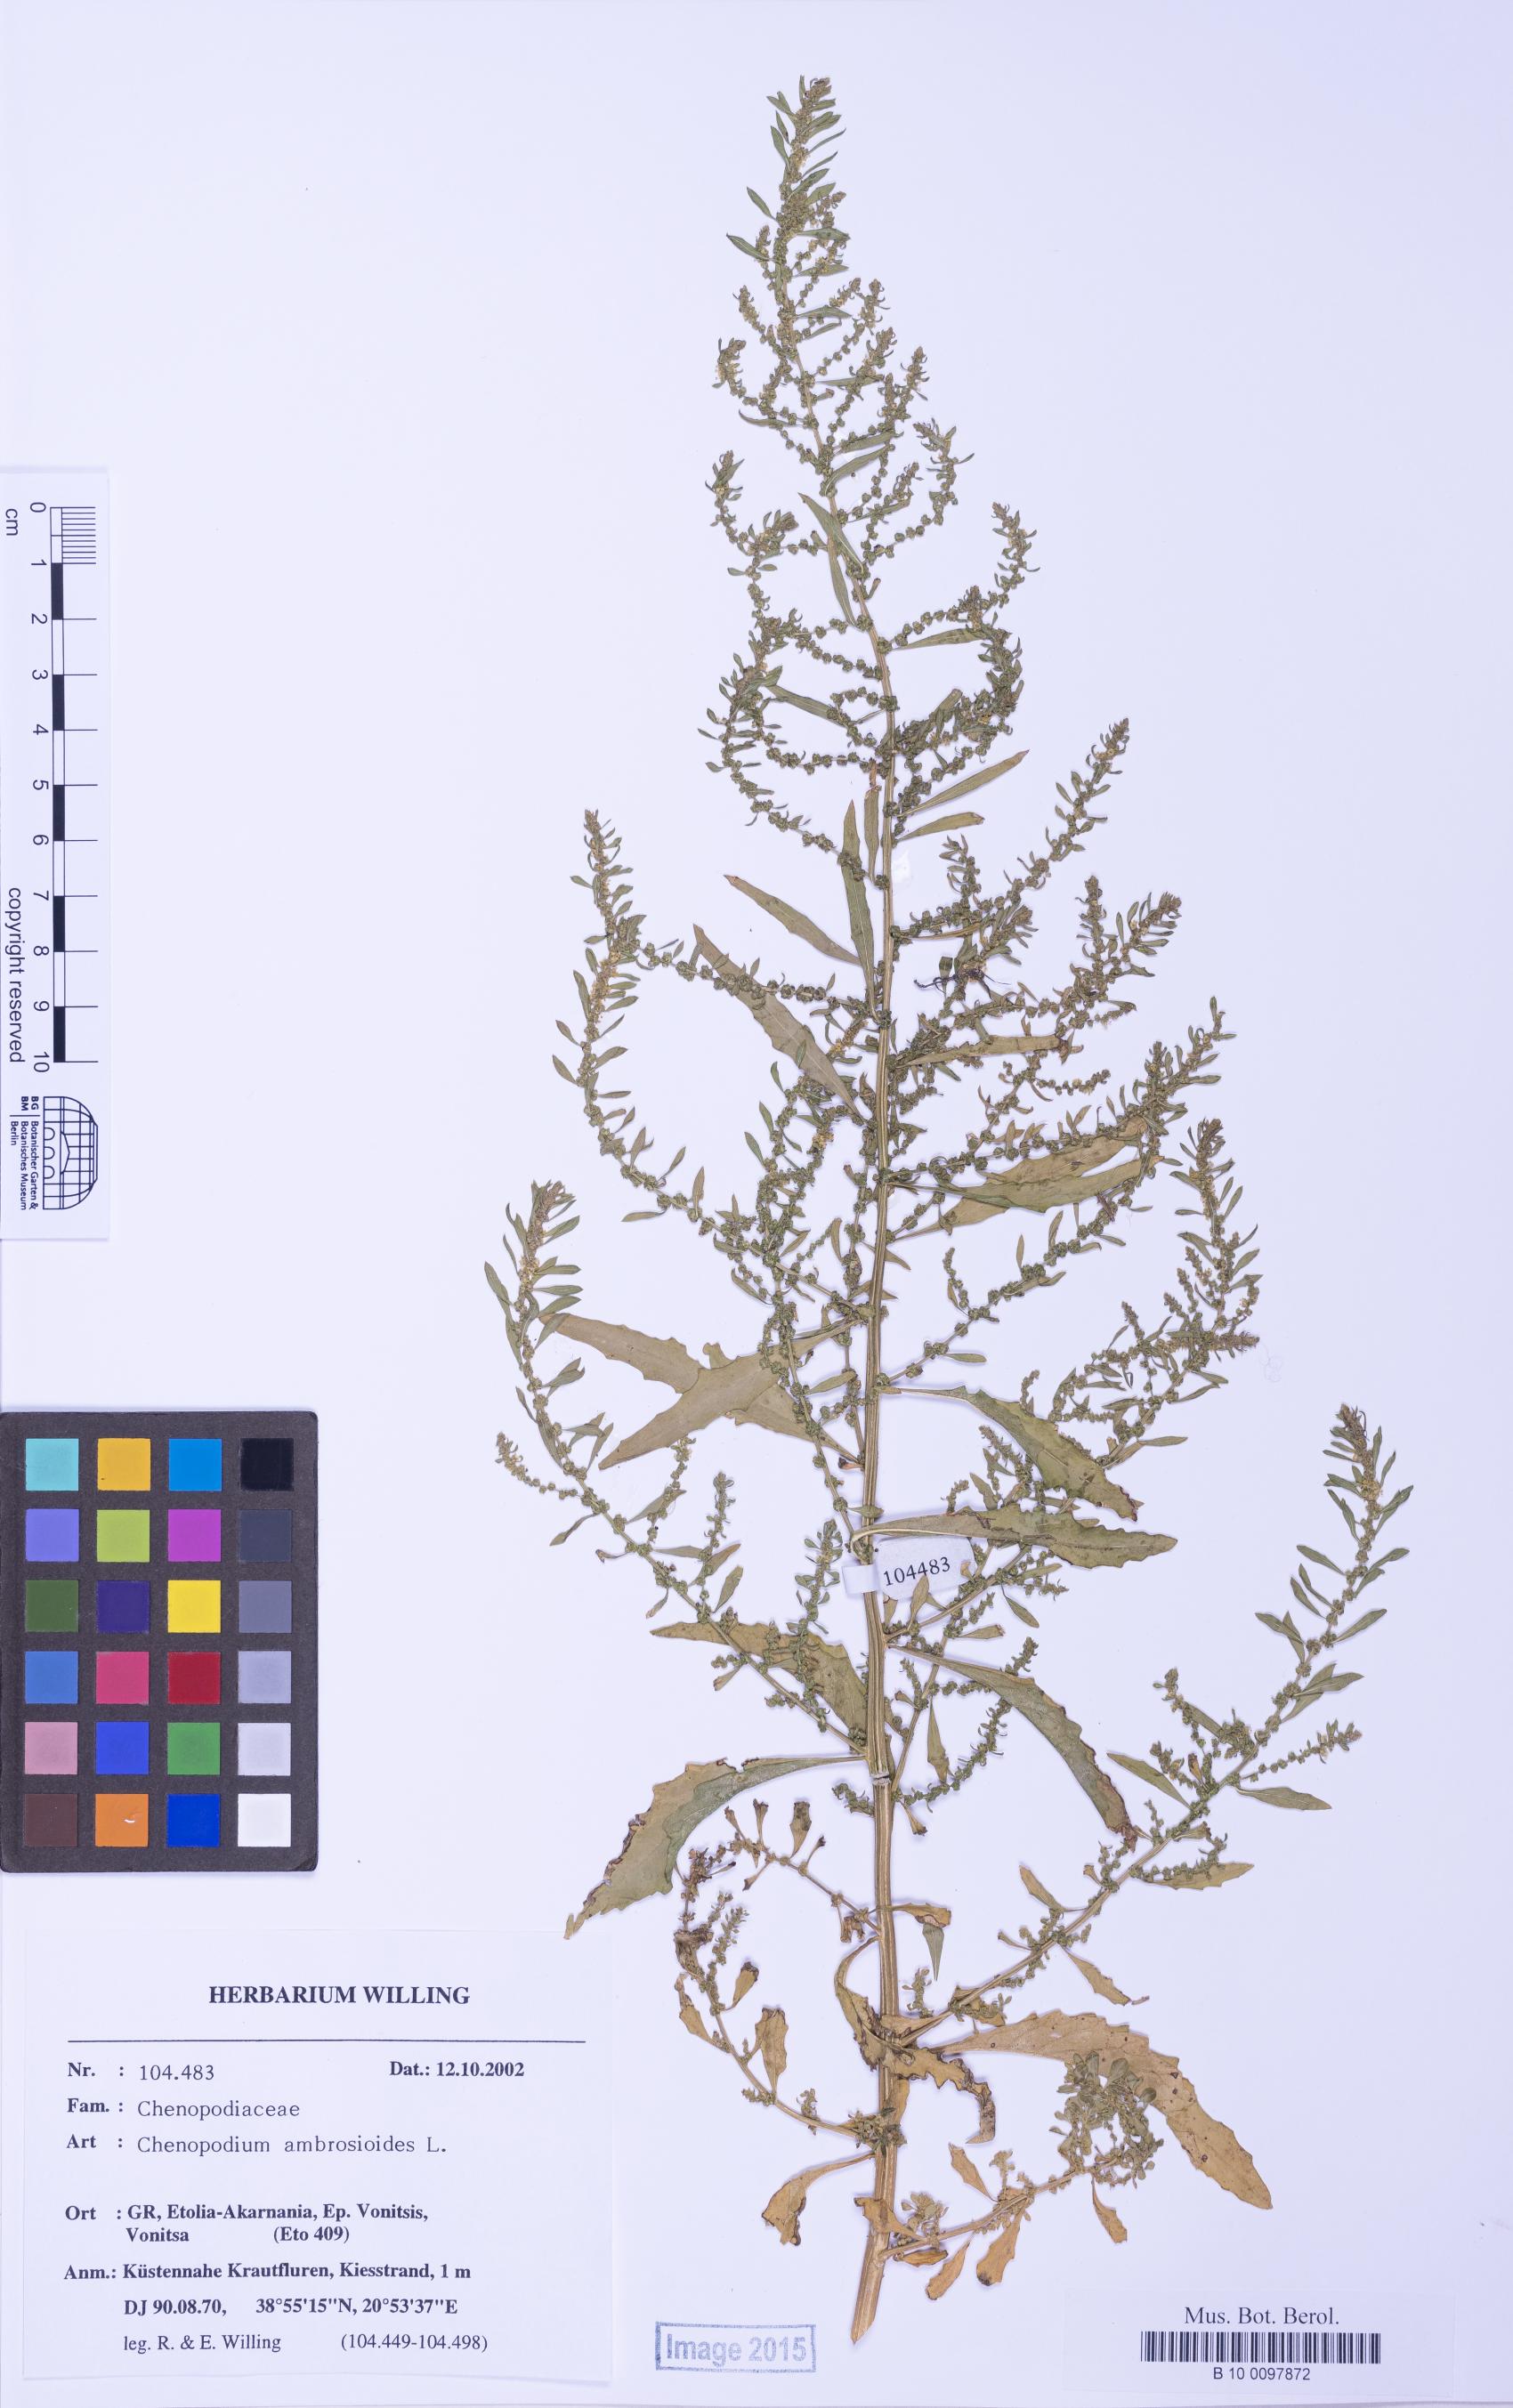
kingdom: Plantae
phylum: Tracheophyta
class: Magnoliopsida
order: Caryophyllales
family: Amaranthaceae
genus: Dysphania
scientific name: Dysphania ambrosioides
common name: Wormseed
